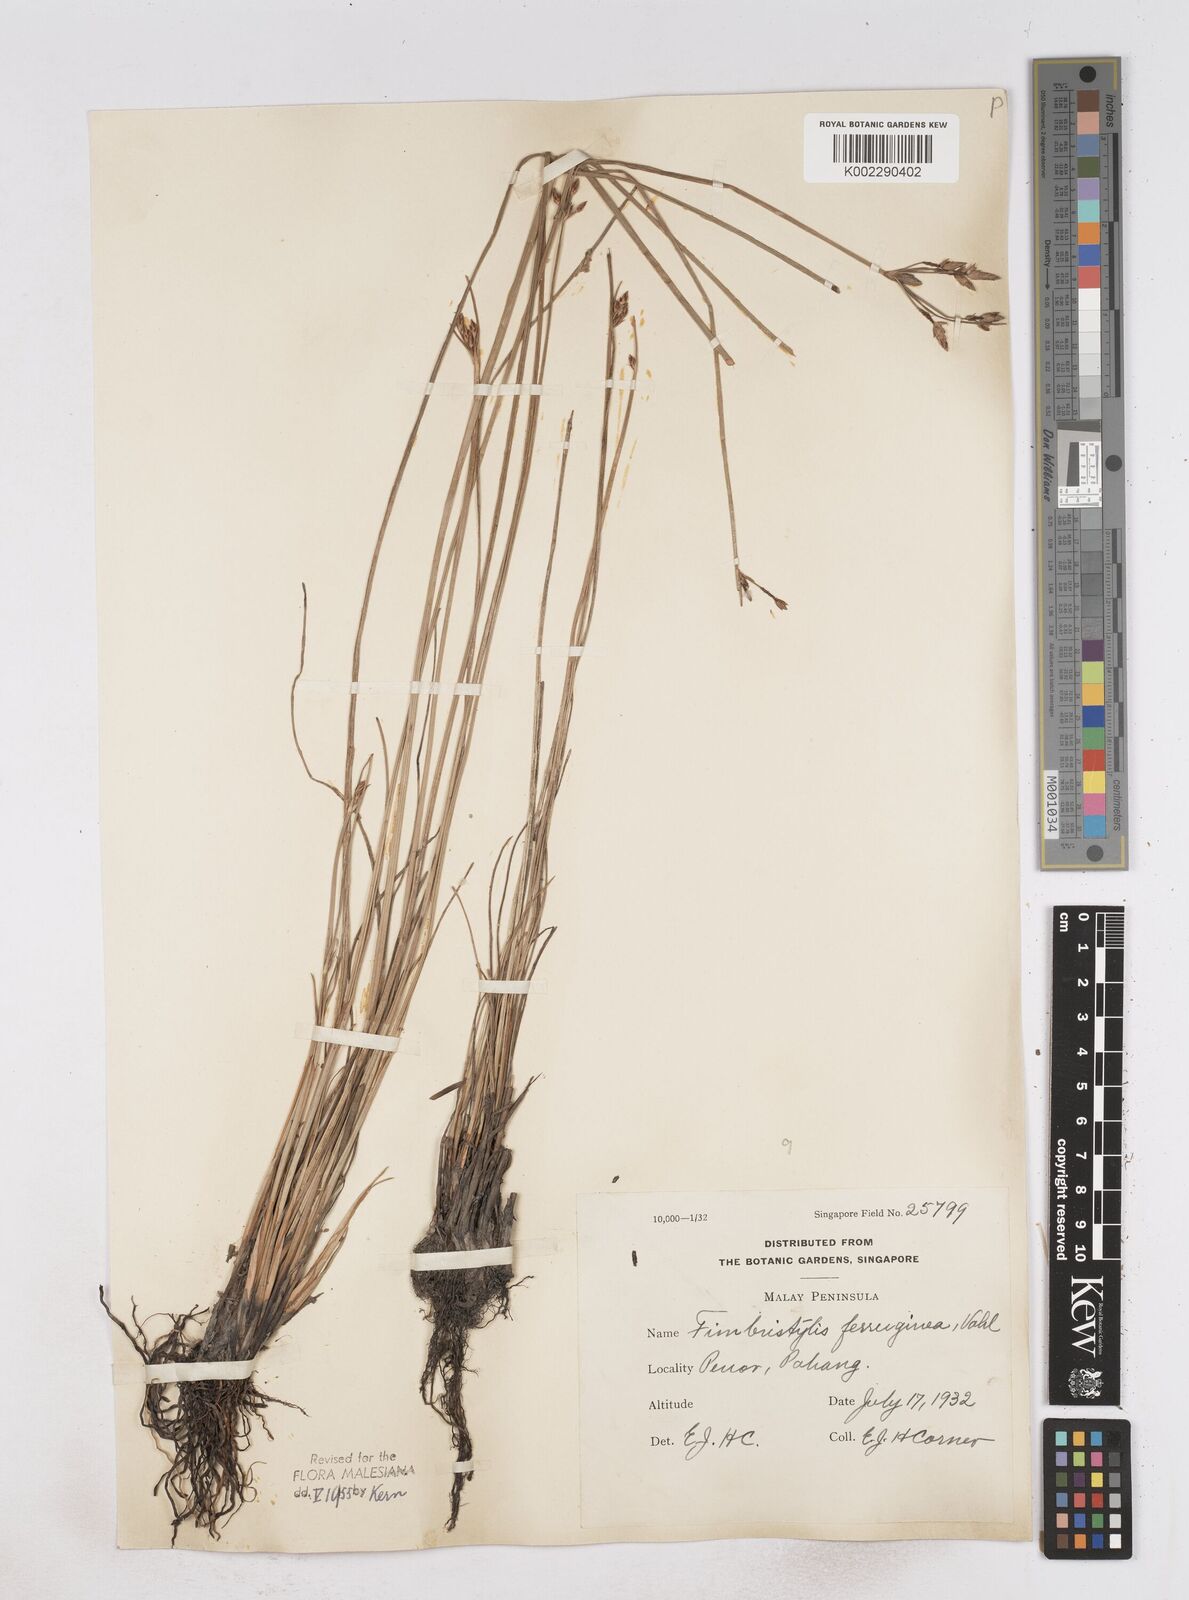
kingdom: Plantae
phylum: Tracheophyta
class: Liliopsida
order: Poales
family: Cyperaceae
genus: Fimbristylis
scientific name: Fimbristylis ferruginea
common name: West indian fimbry
